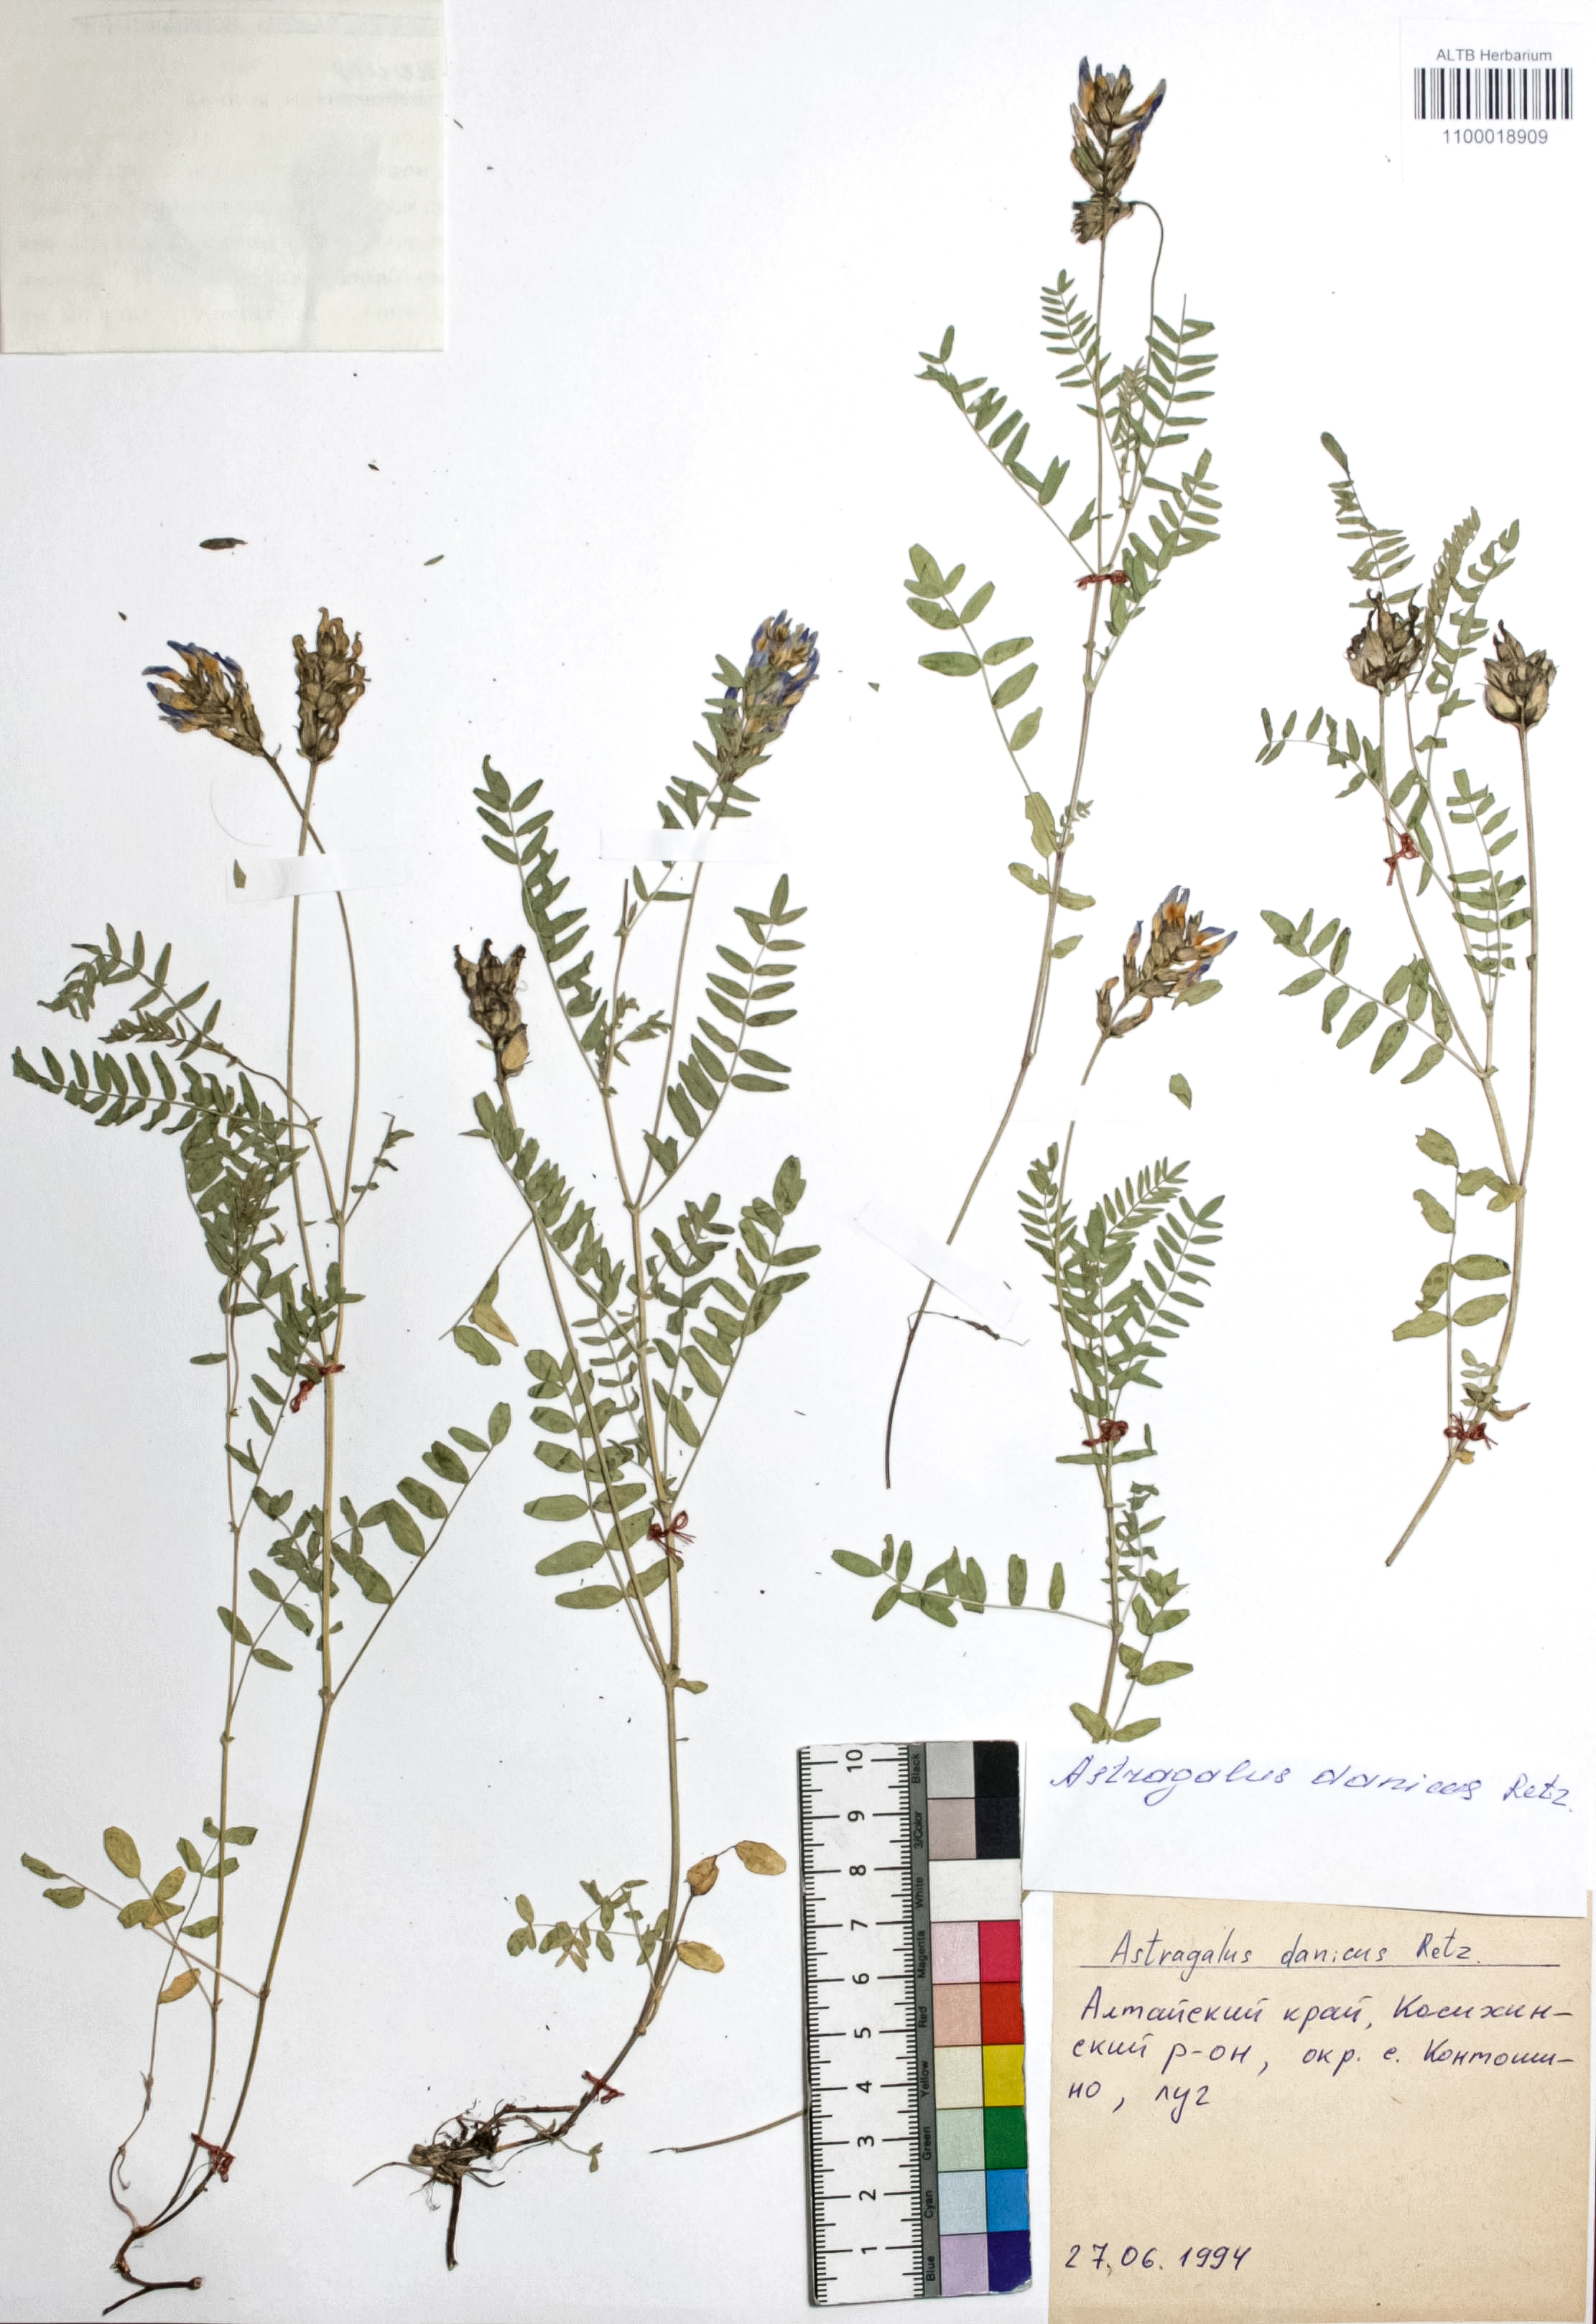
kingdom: Plantae
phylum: Tracheophyta
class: Magnoliopsida
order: Fabales
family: Fabaceae
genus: Astragalus
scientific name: Astragalus danicus
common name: Purple milk-vetch
